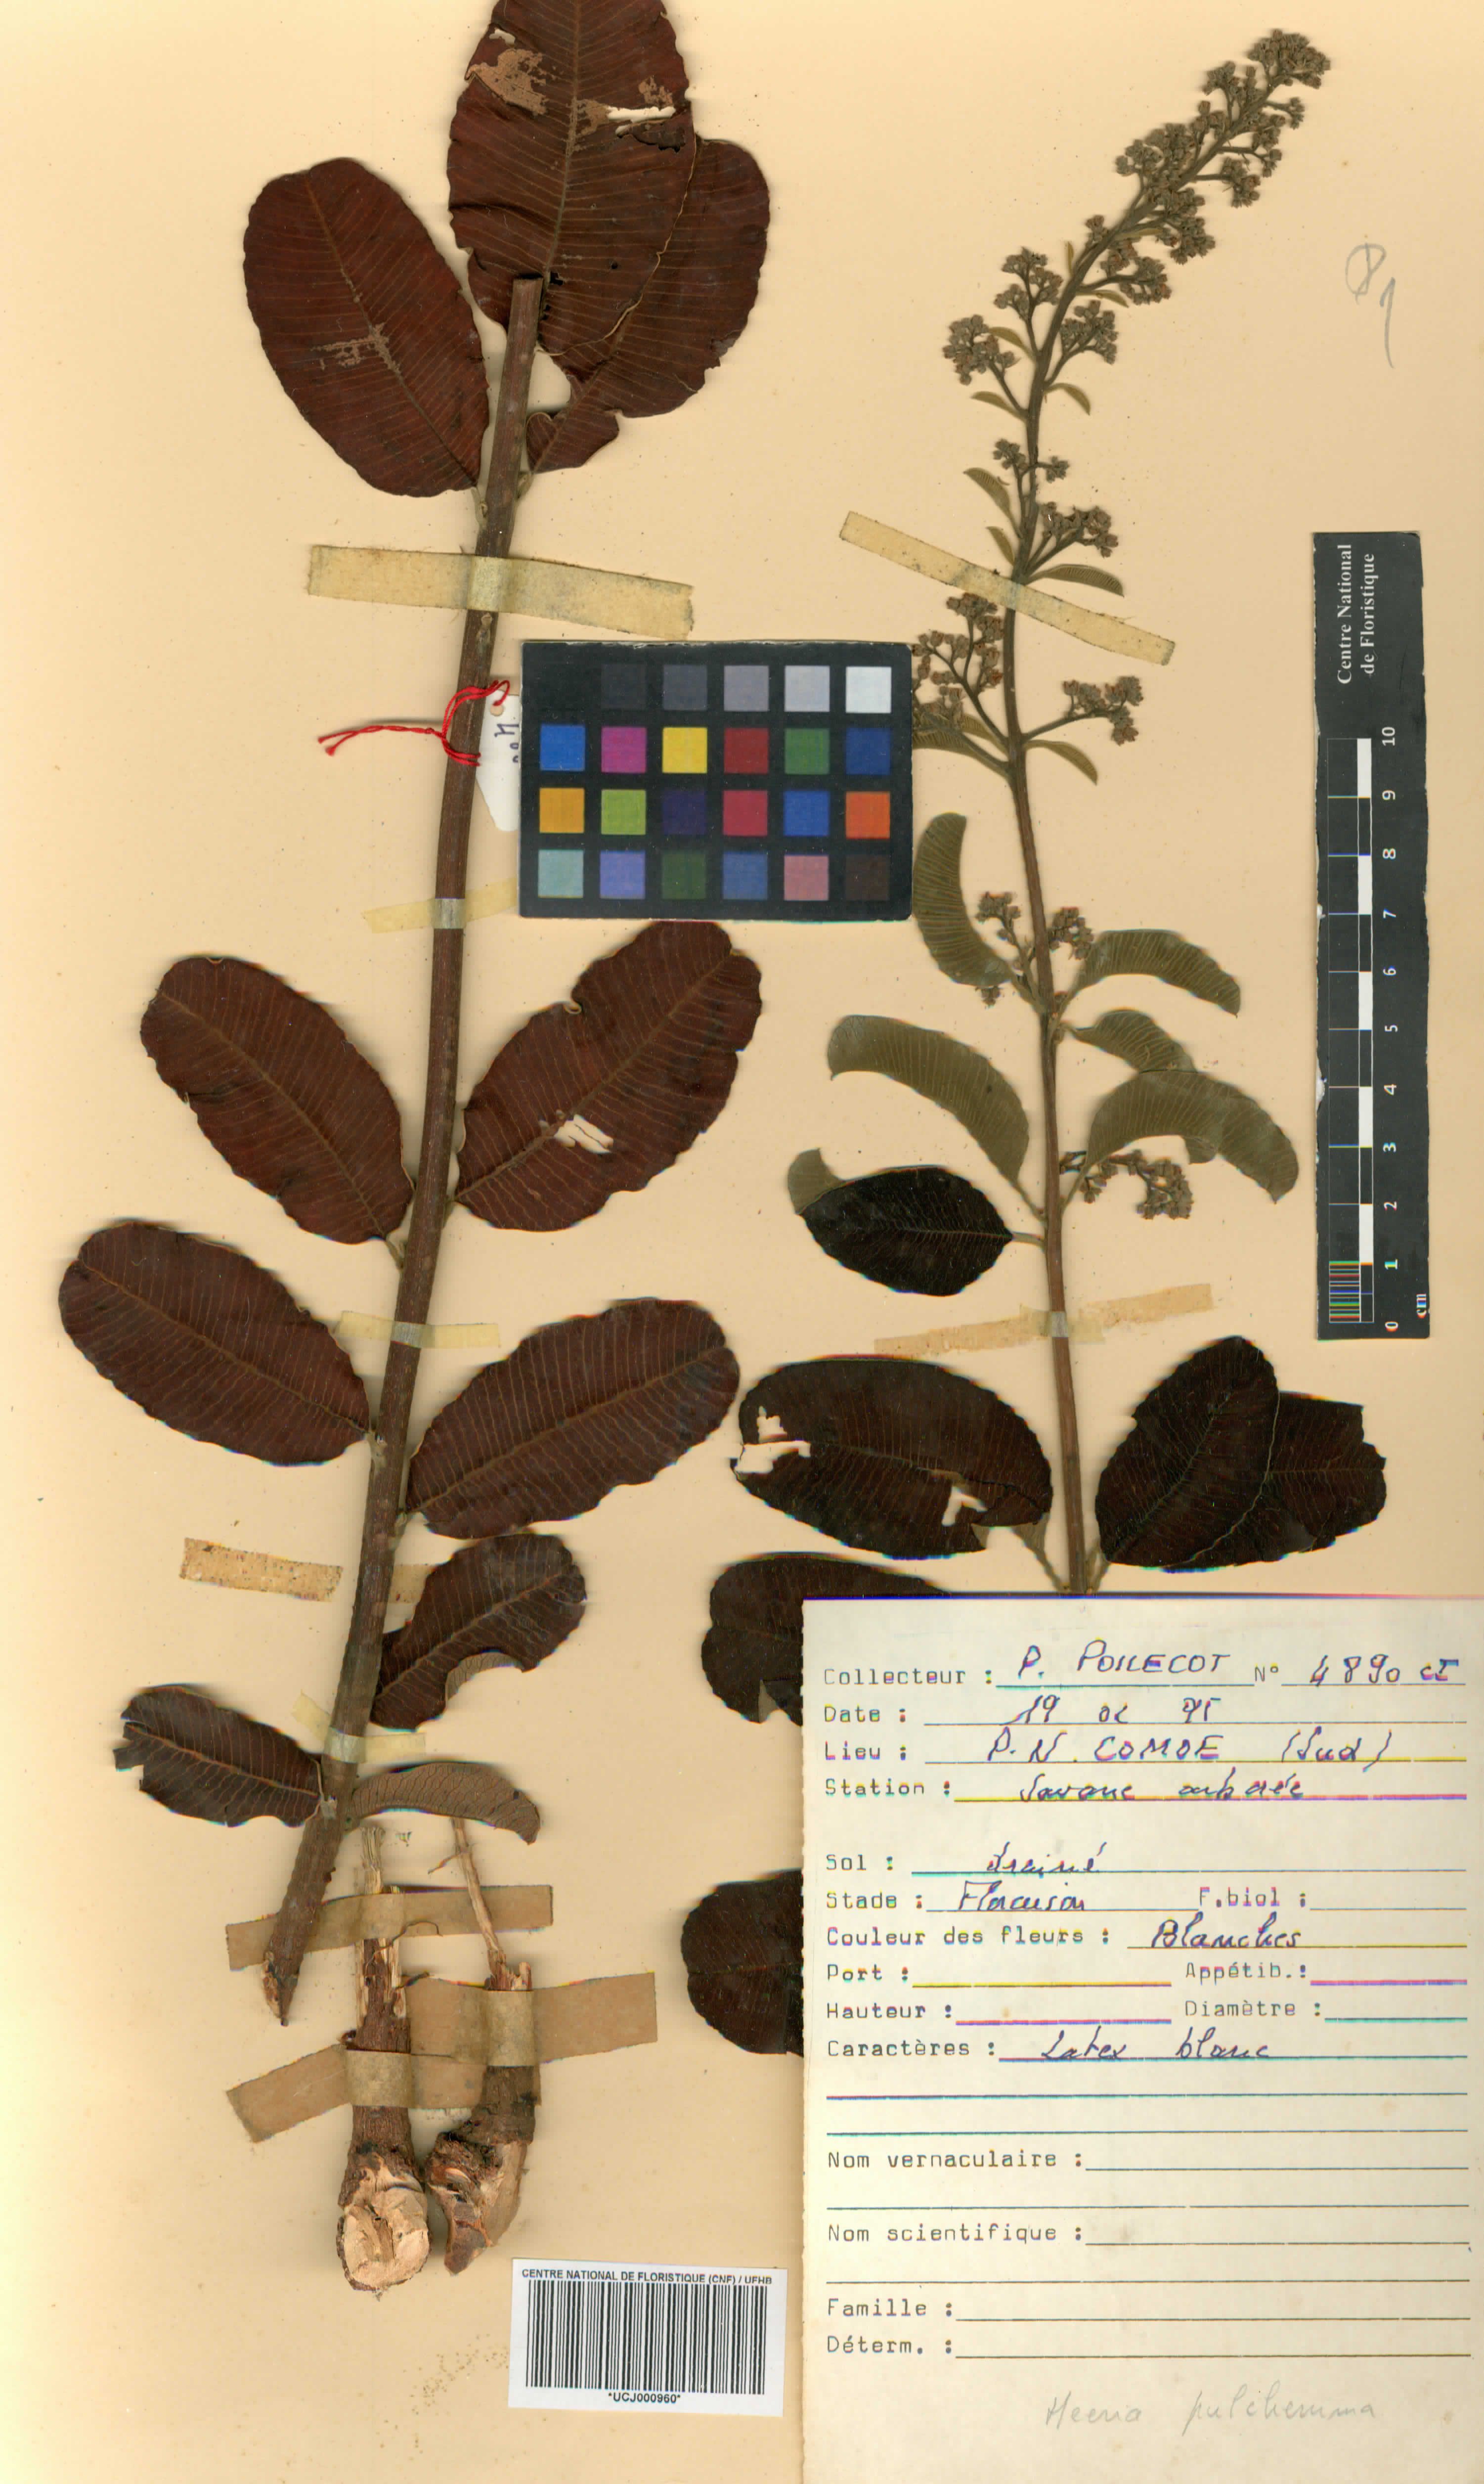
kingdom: Plantae
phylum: Tracheophyta
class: Magnoliopsida
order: Sapindales
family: Anacardiaceae
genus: Ozoroa
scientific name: Ozoroa pulcherrima
